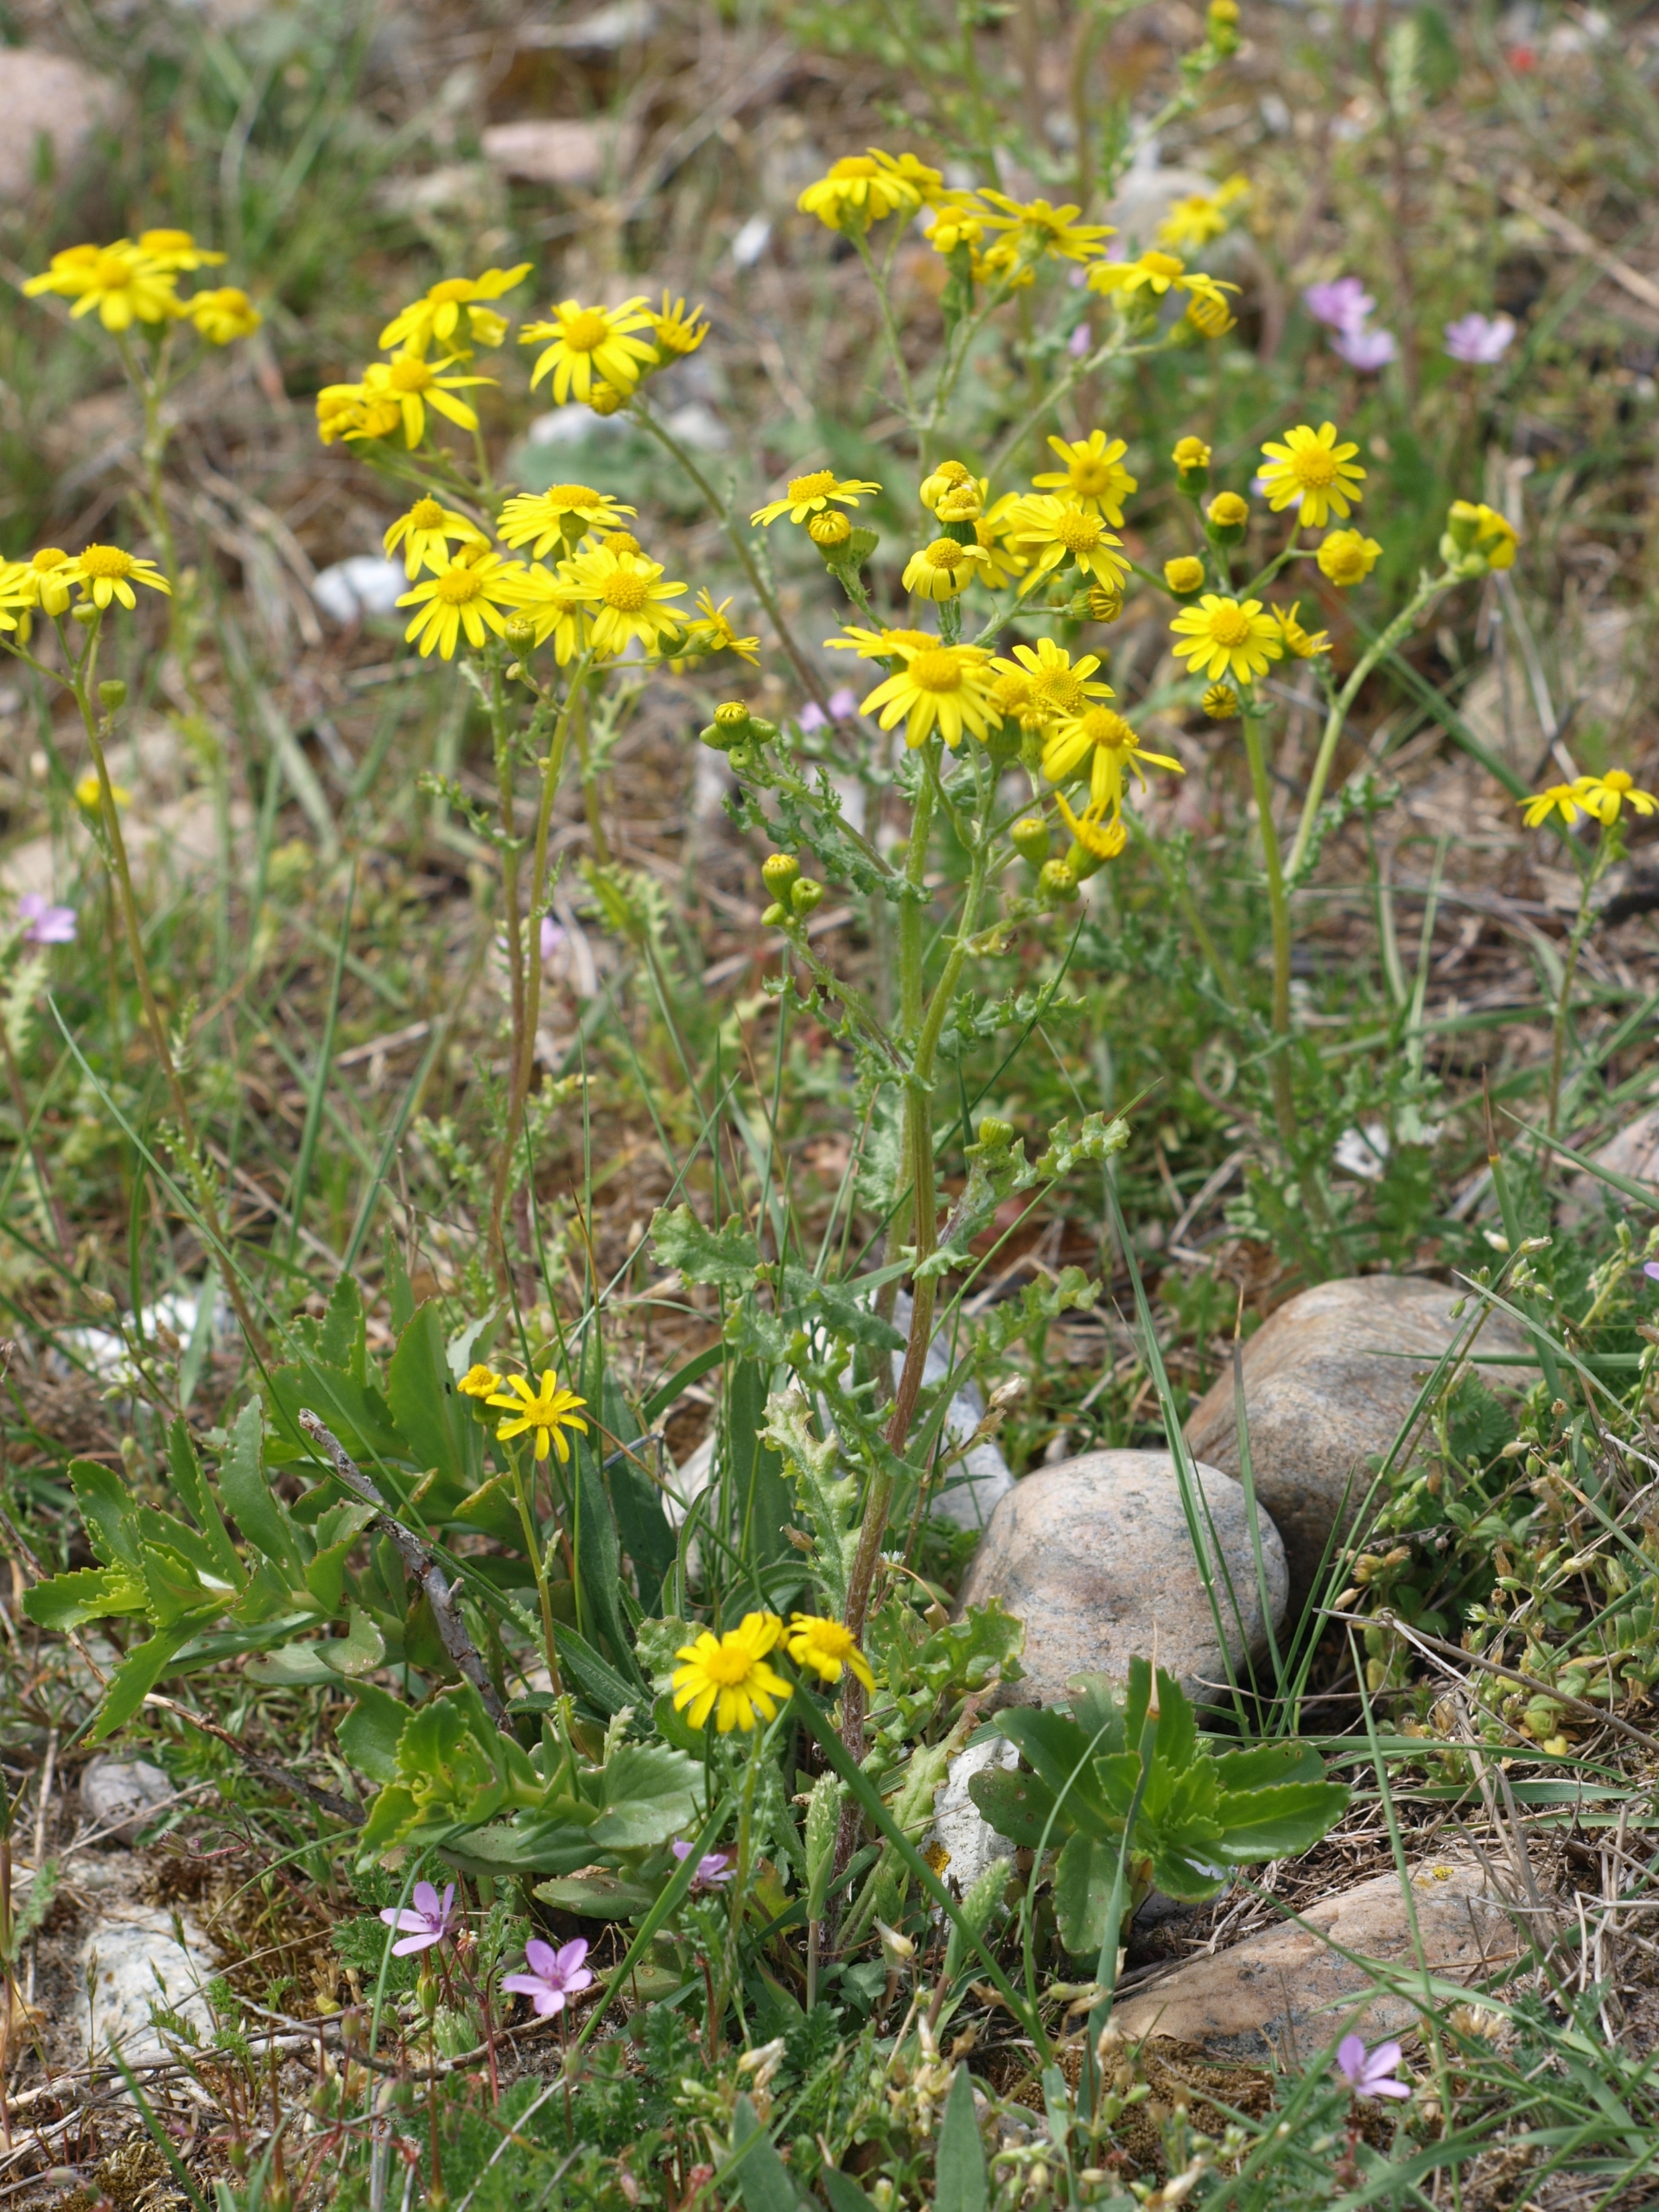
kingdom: Plantae
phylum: Tracheophyta
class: Magnoliopsida
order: Asterales
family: Asteraceae
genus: Senecio
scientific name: Senecio leucanthemifolius
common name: Vår-brandbæger
